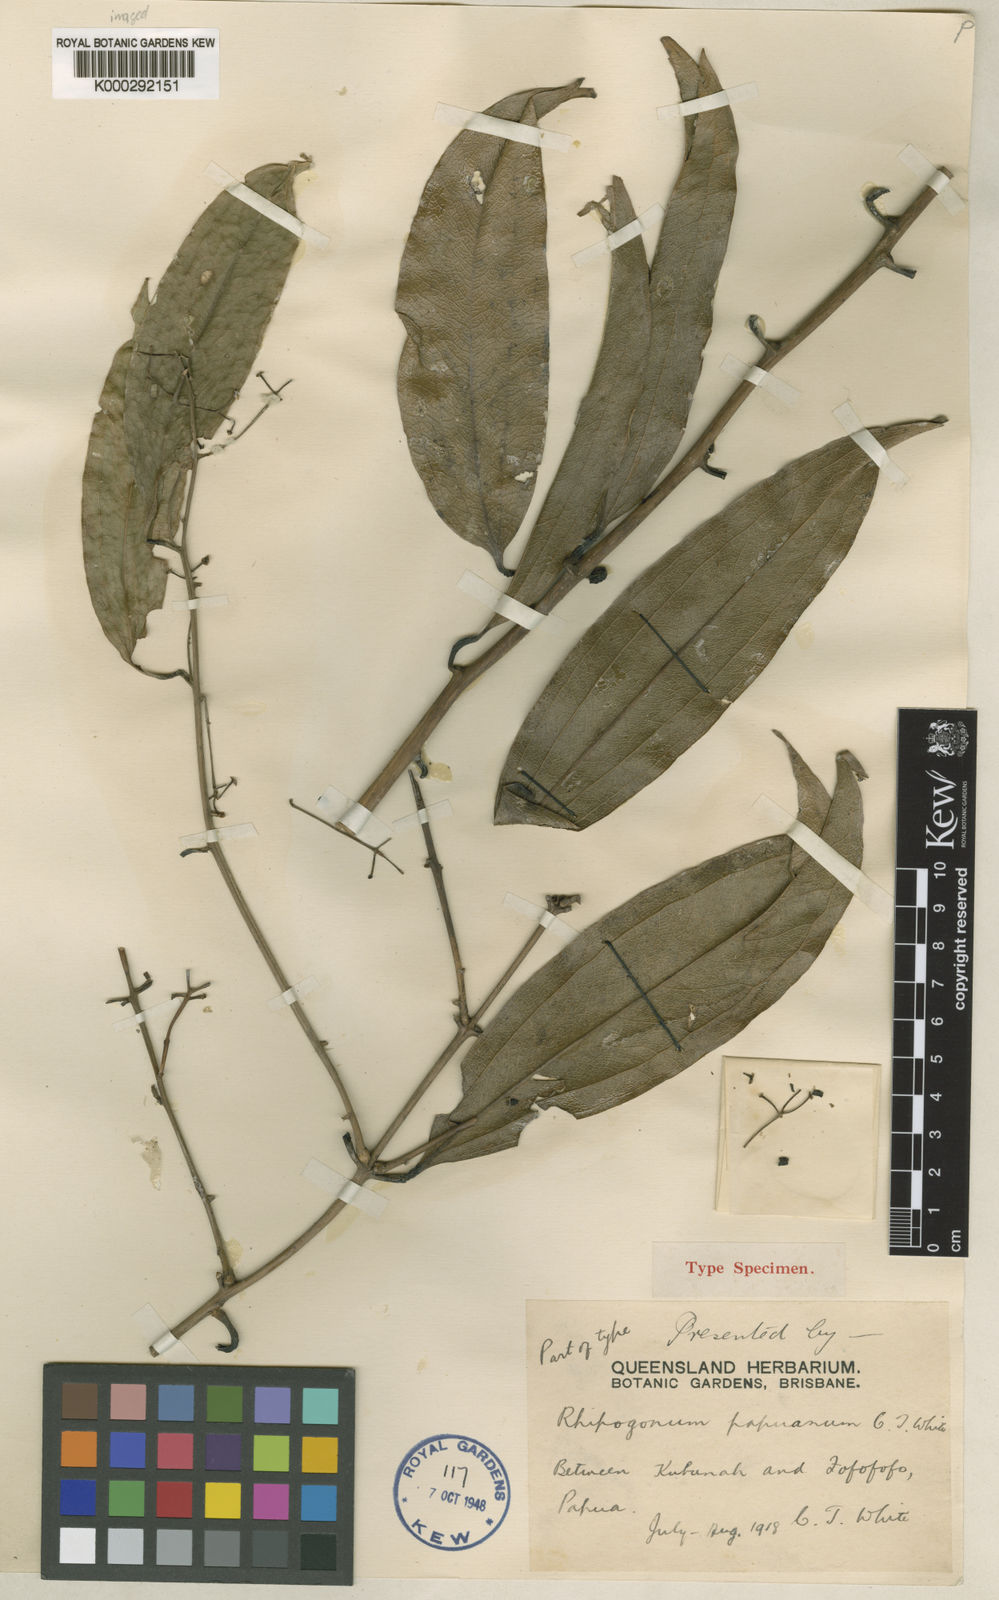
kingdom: Plantae
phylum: Tracheophyta
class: Liliopsida
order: Liliales
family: Ripogonaceae
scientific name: Ripogonaceae
